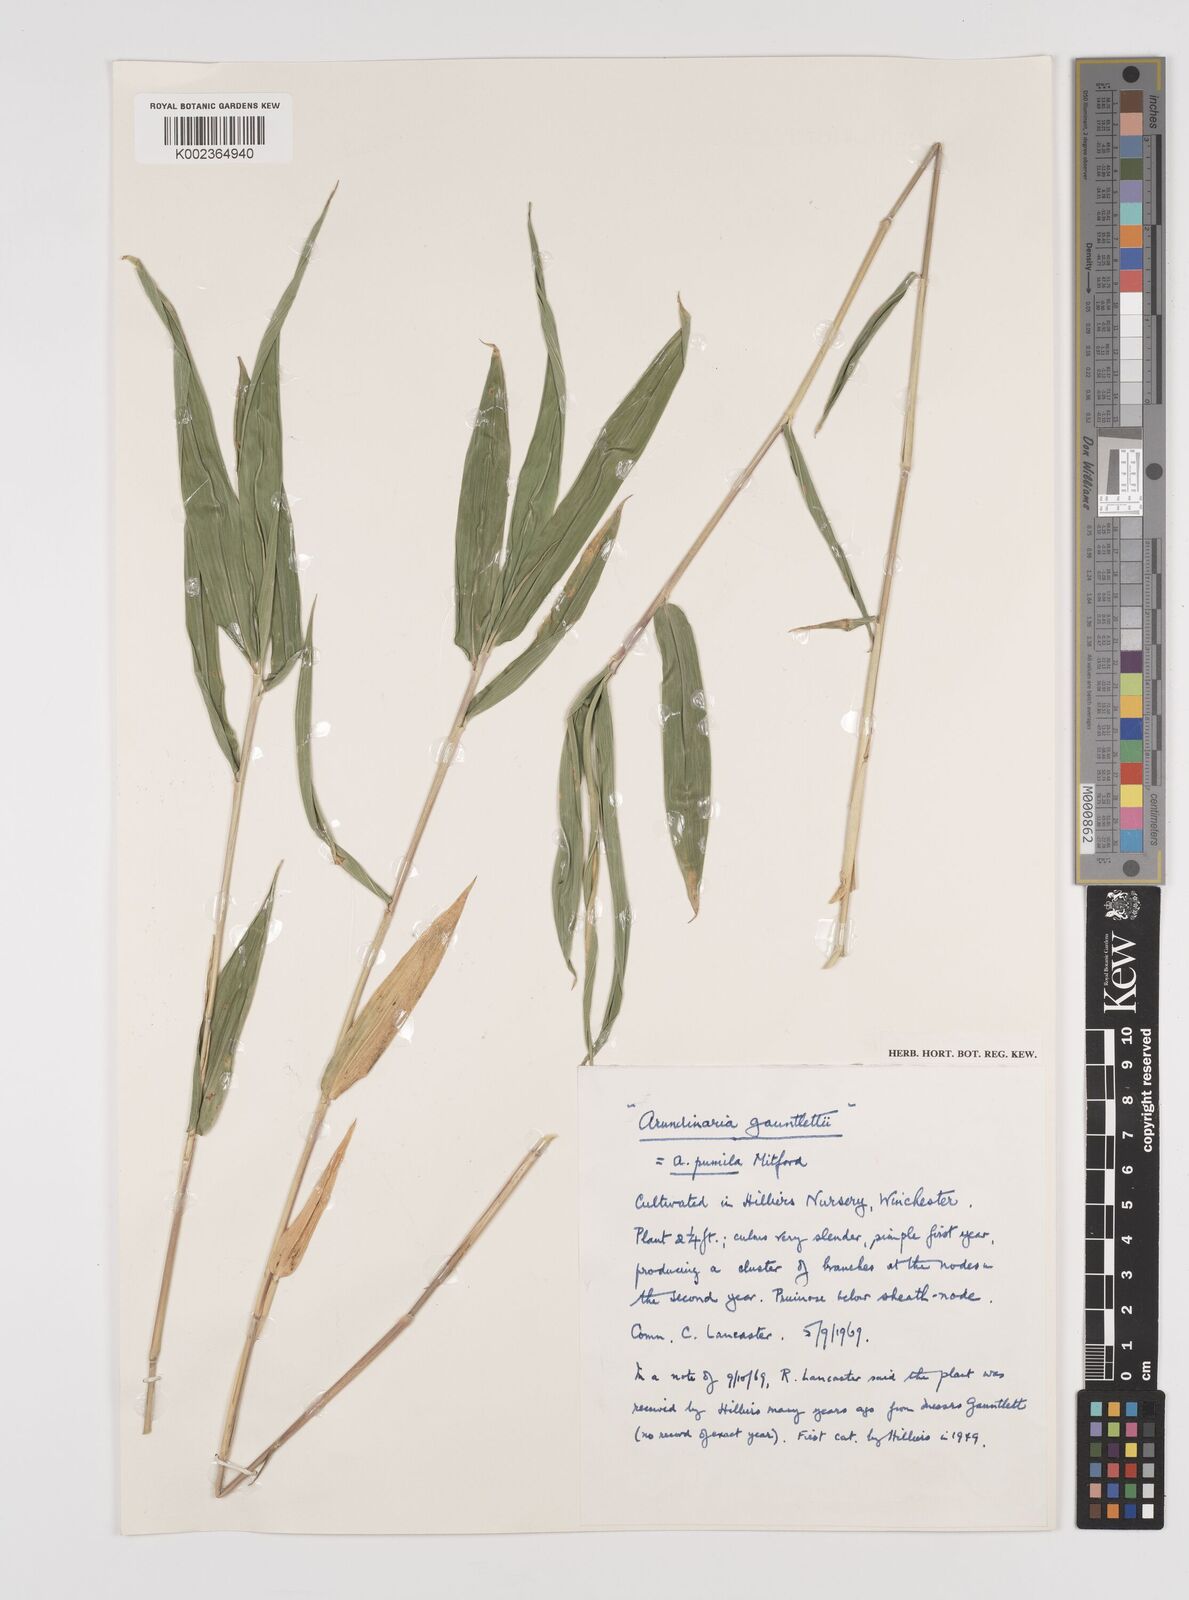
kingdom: Plantae
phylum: Tracheophyta
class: Liliopsida
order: Poales
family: Poaceae
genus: Pleioblastus
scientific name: Pleioblastus argenteostriatus
